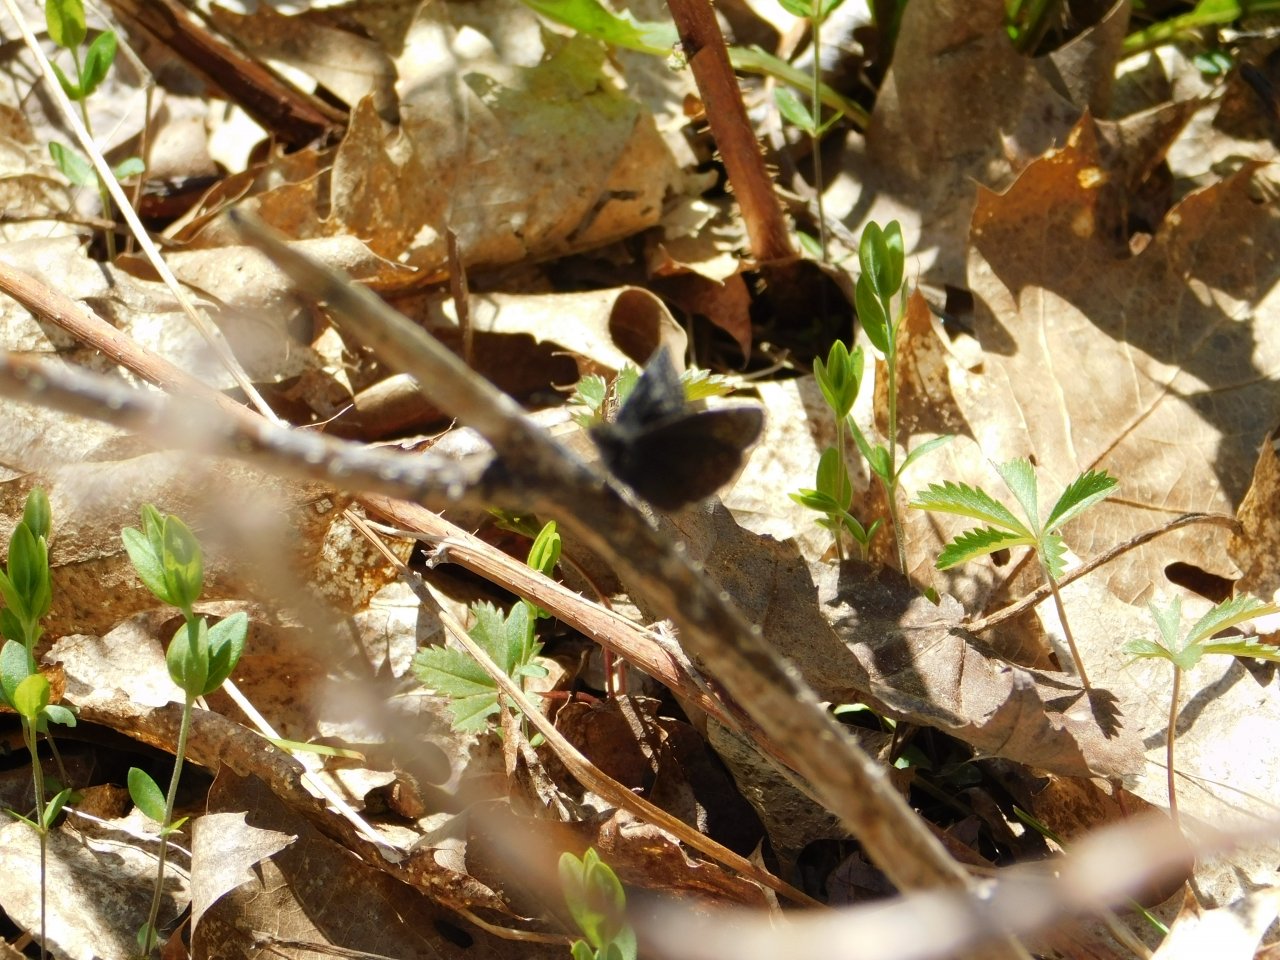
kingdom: Animalia
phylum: Arthropoda
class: Insecta
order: Lepidoptera
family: Hesperiidae
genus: Erynnis
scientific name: Erynnis icelus
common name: Dreamy Duskywing
